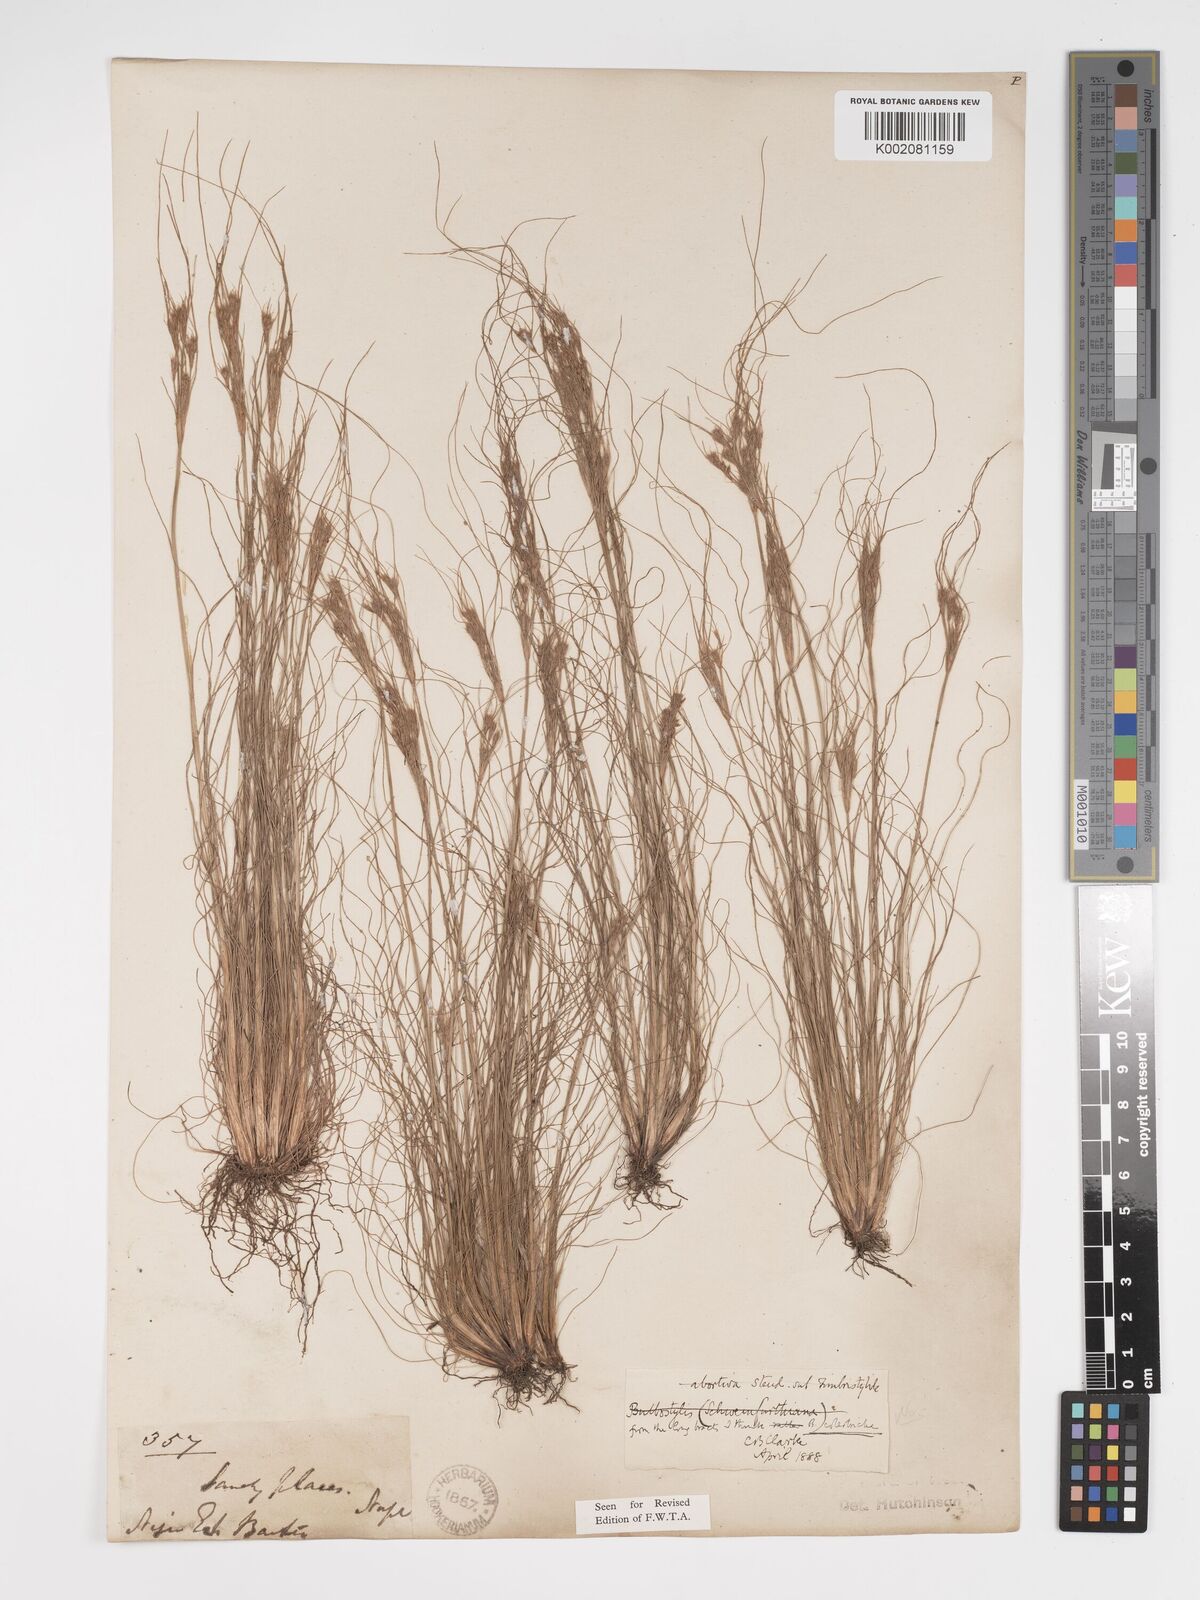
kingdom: Plantae
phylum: Tracheophyta
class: Liliopsida
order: Poales
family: Cyperaceae
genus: Bulbostylis
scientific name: Bulbostylis abortiva
